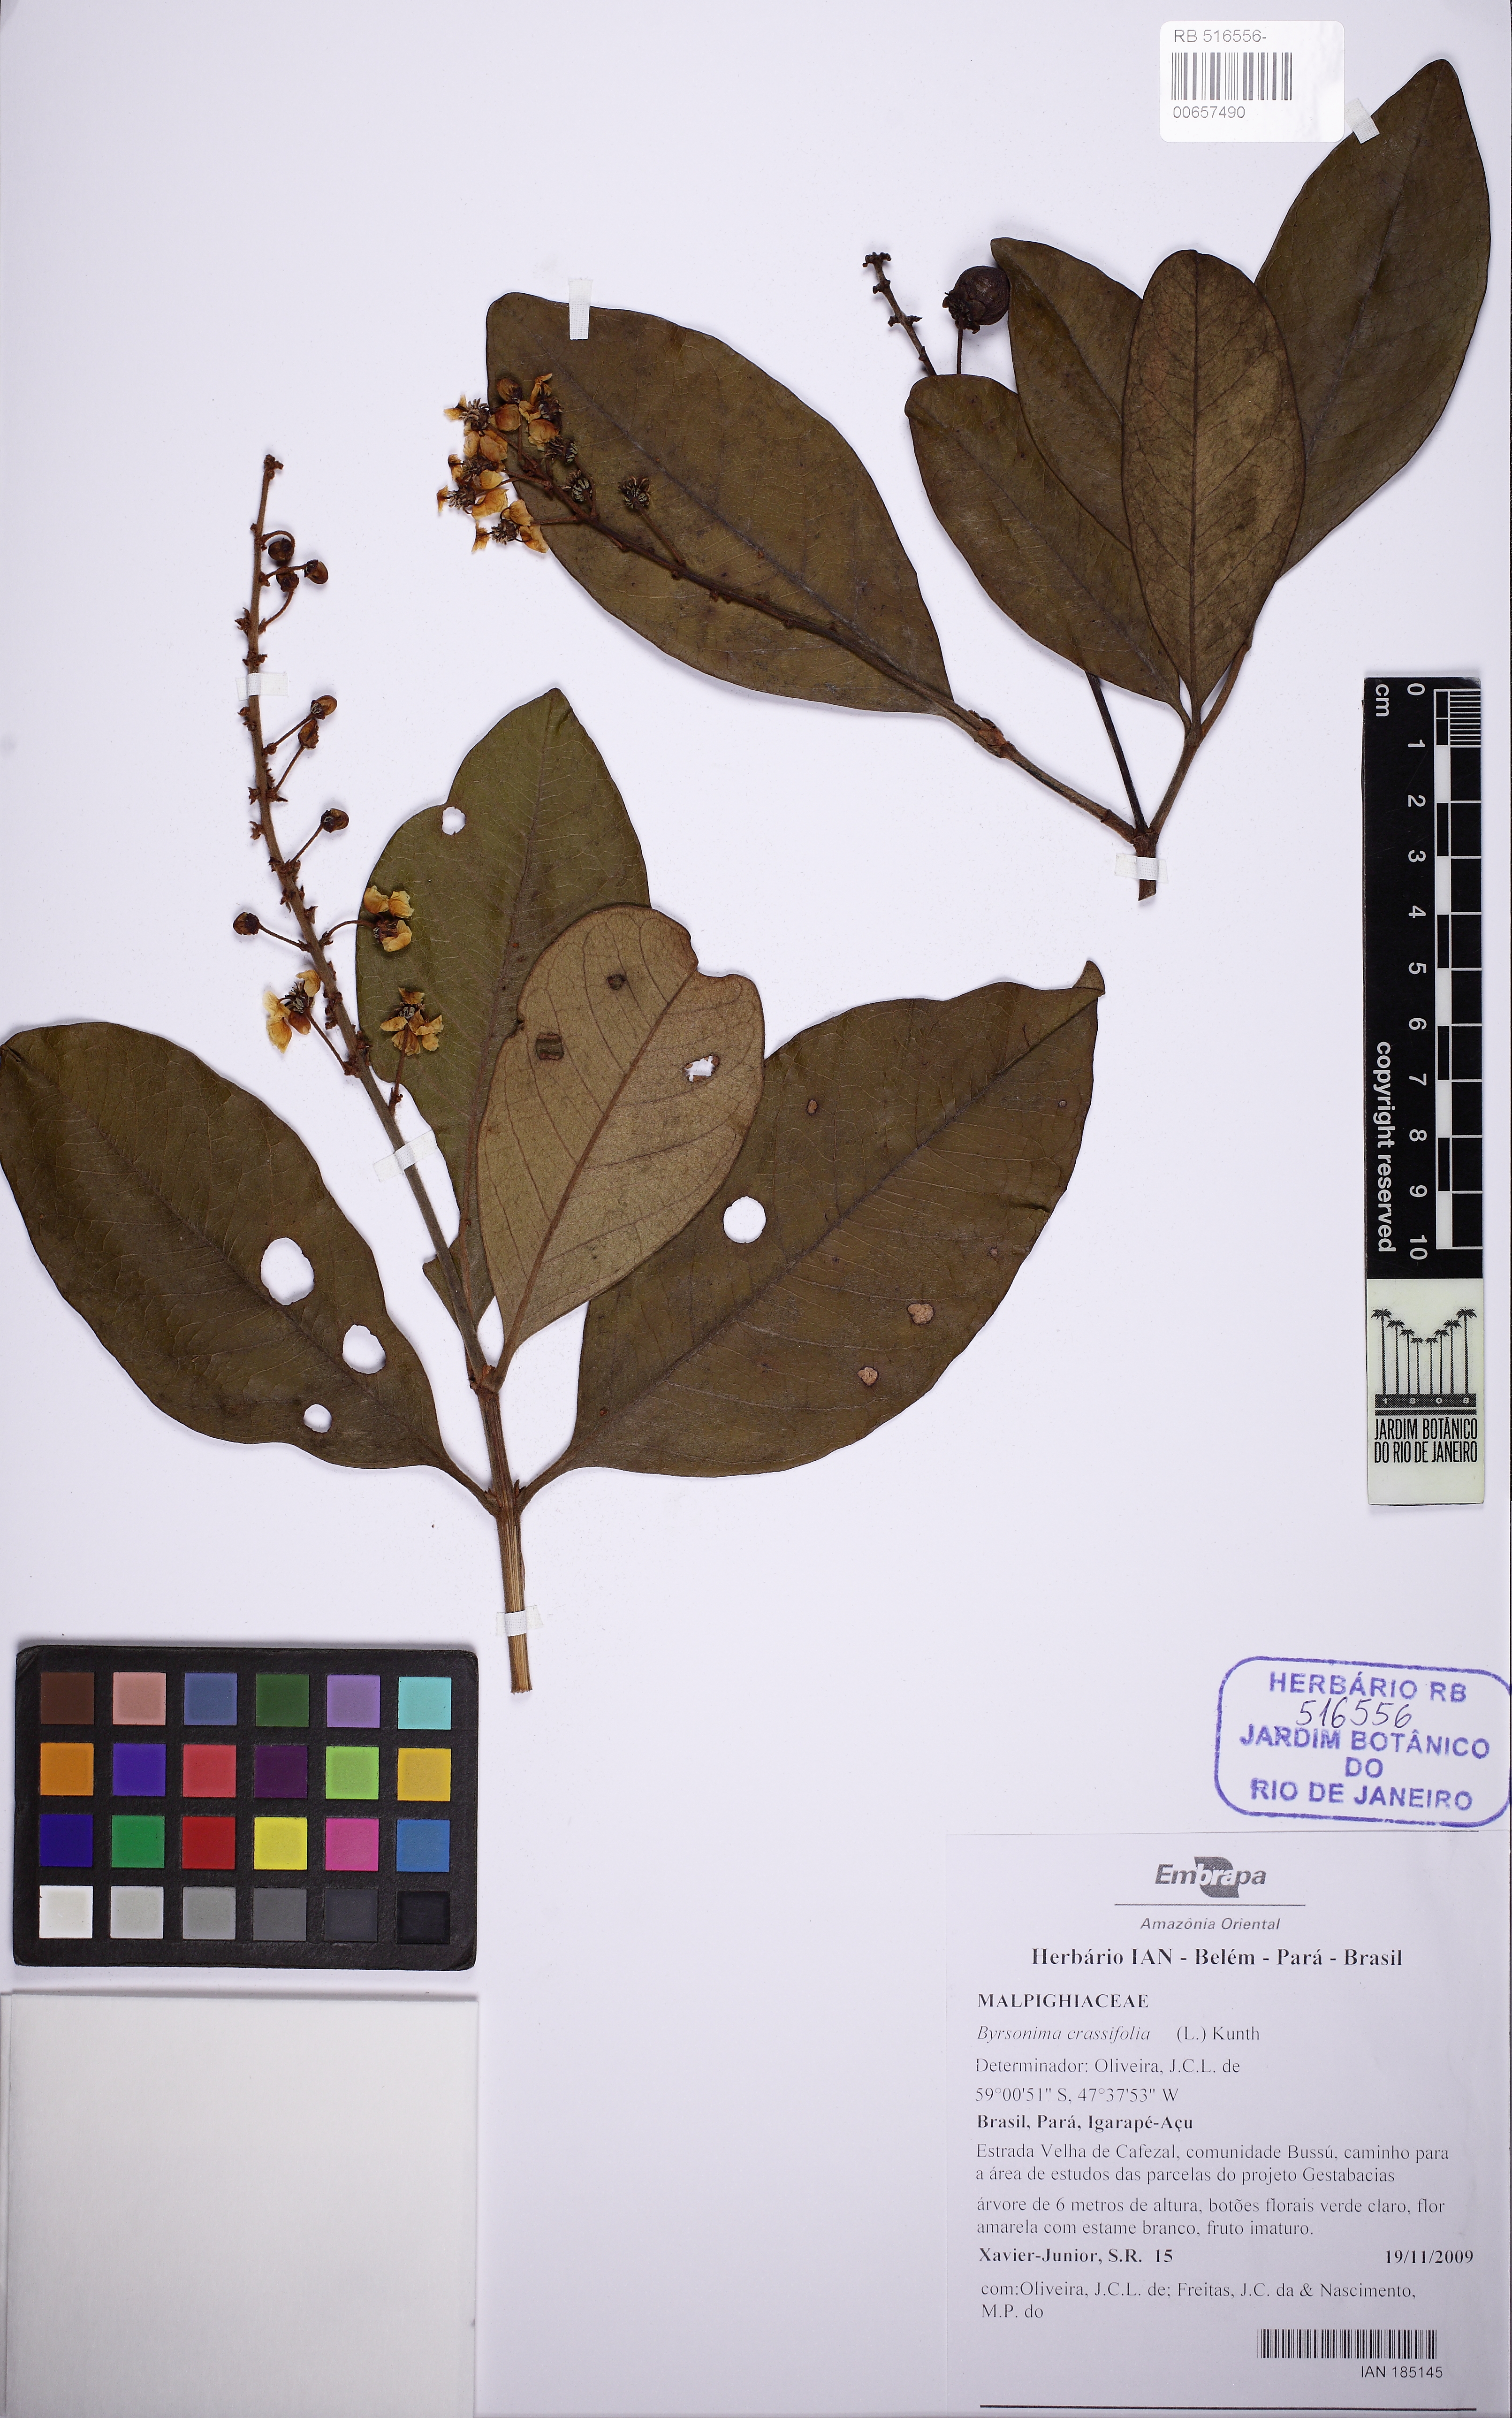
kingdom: Plantae
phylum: Tracheophyta
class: Magnoliopsida
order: Malpighiales
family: Malpighiaceae
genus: Byrsonima
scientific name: Byrsonima crassifolia
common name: Golden spoon
